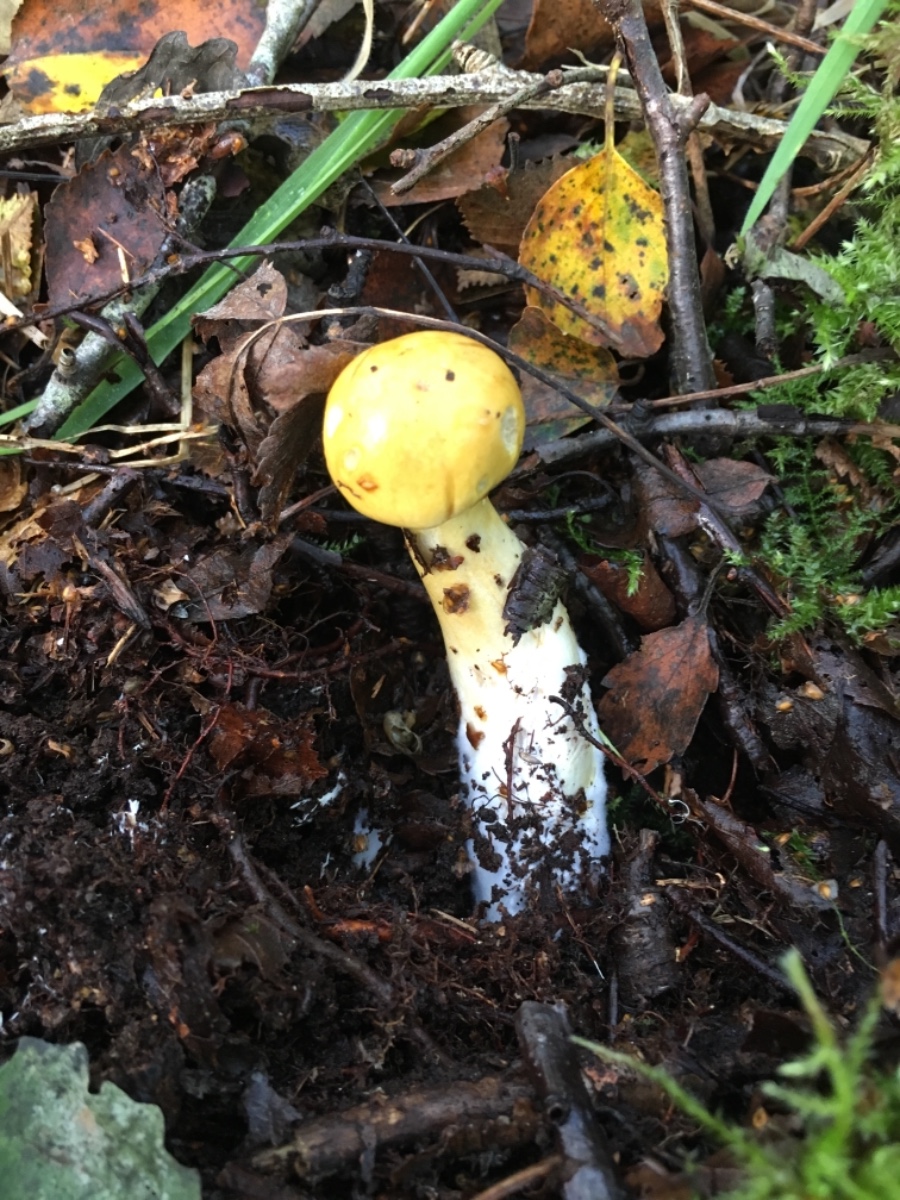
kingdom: Fungi
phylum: Basidiomycota
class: Agaricomycetes
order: Agaricales
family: Cortinariaceae
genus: Cortinarius
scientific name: Cortinarius delibutus
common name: gul slørhat
